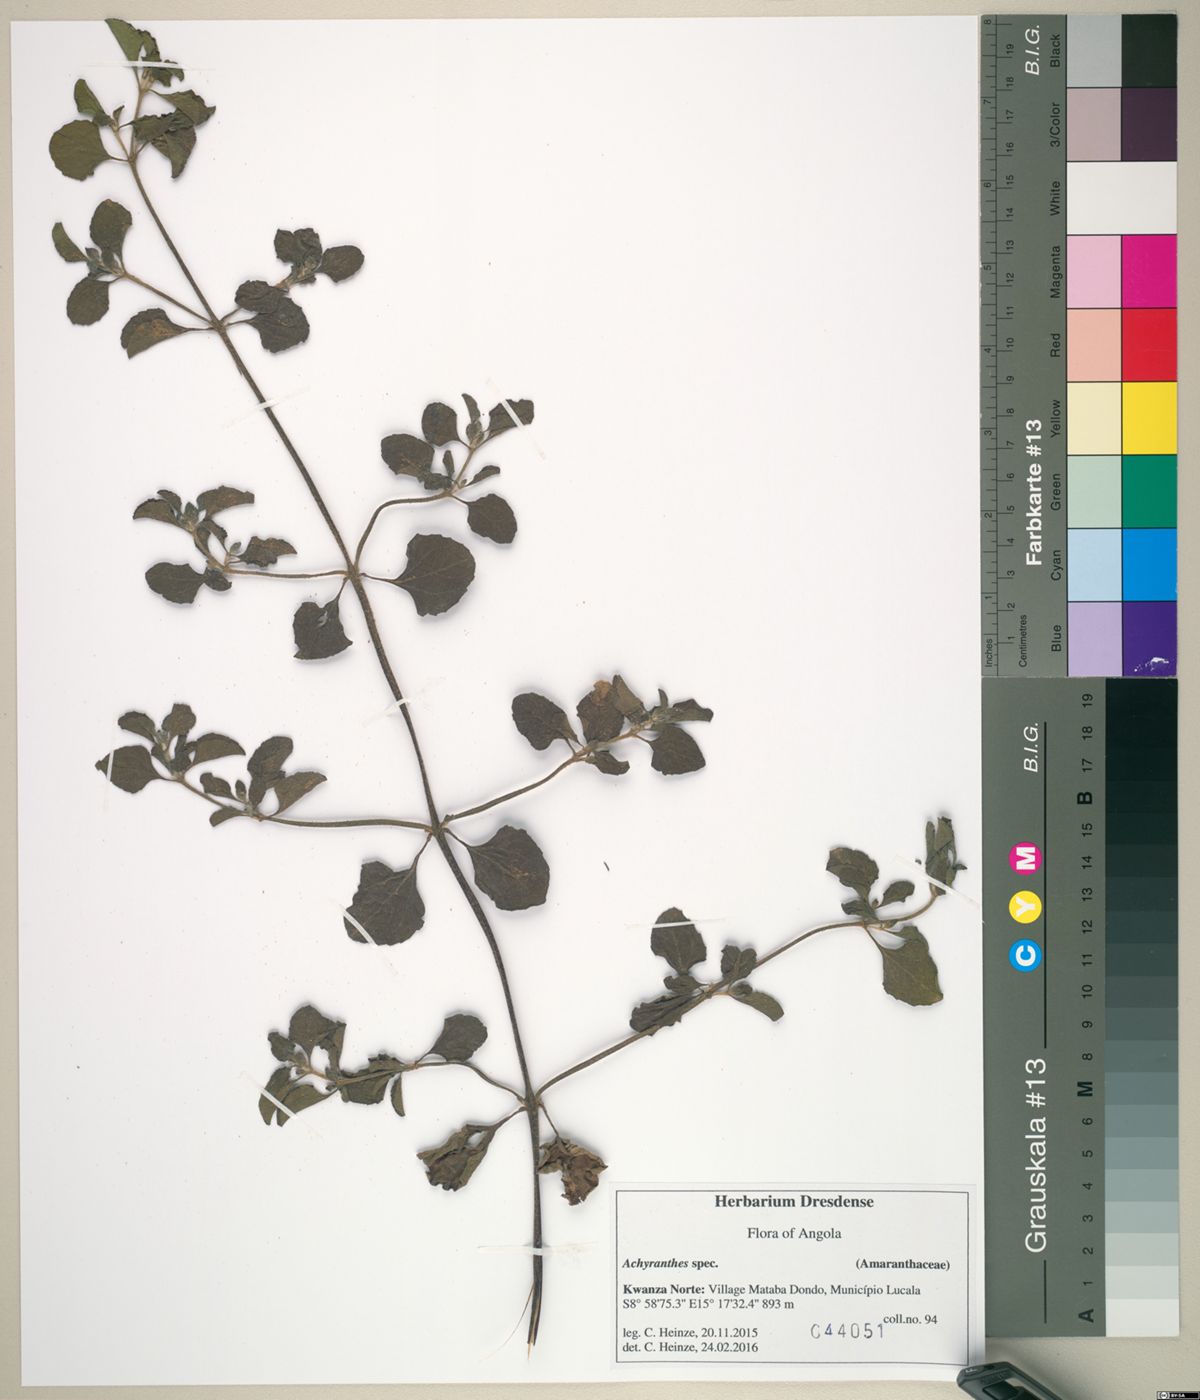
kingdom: Plantae
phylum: Tracheophyta
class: Magnoliopsida
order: Caryophyllales
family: Amaranthaceae
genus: Achyranthes
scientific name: Achyranthes
